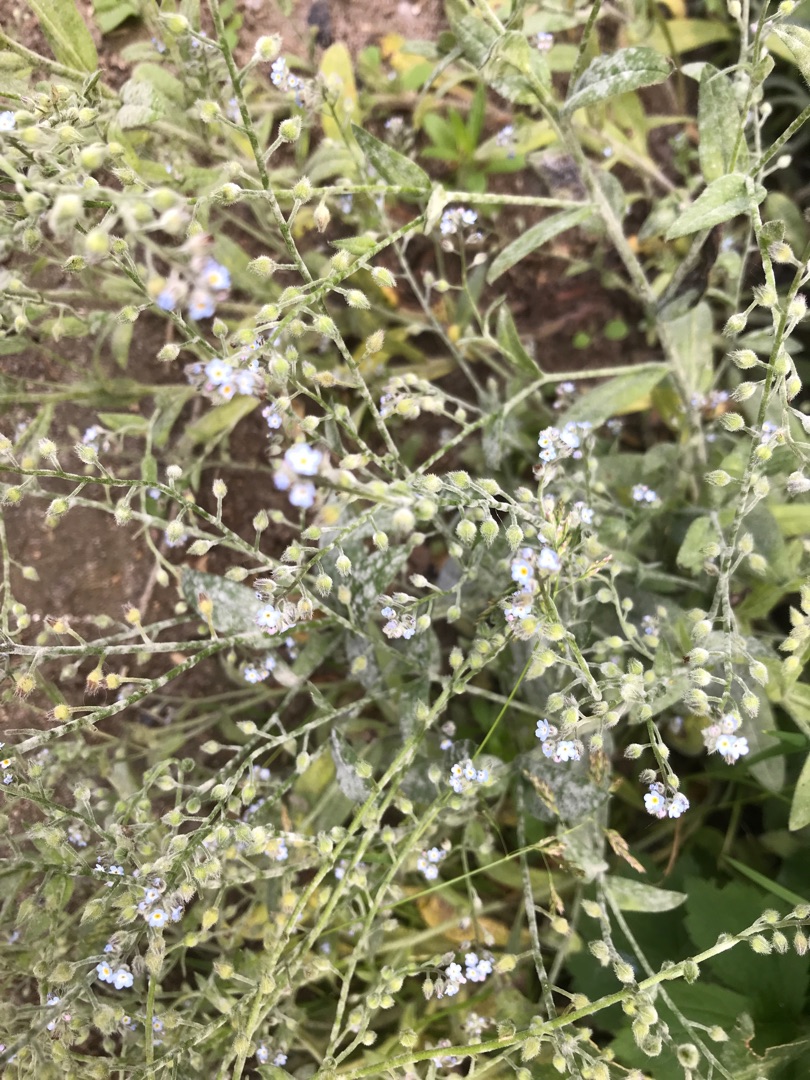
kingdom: Plantae
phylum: Tracheophyta
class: Magnoliopsida
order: Boraginales
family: Boraginaceae
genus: Myosotis
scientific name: Myosotis arvensis
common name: Mark-forglemmigej
